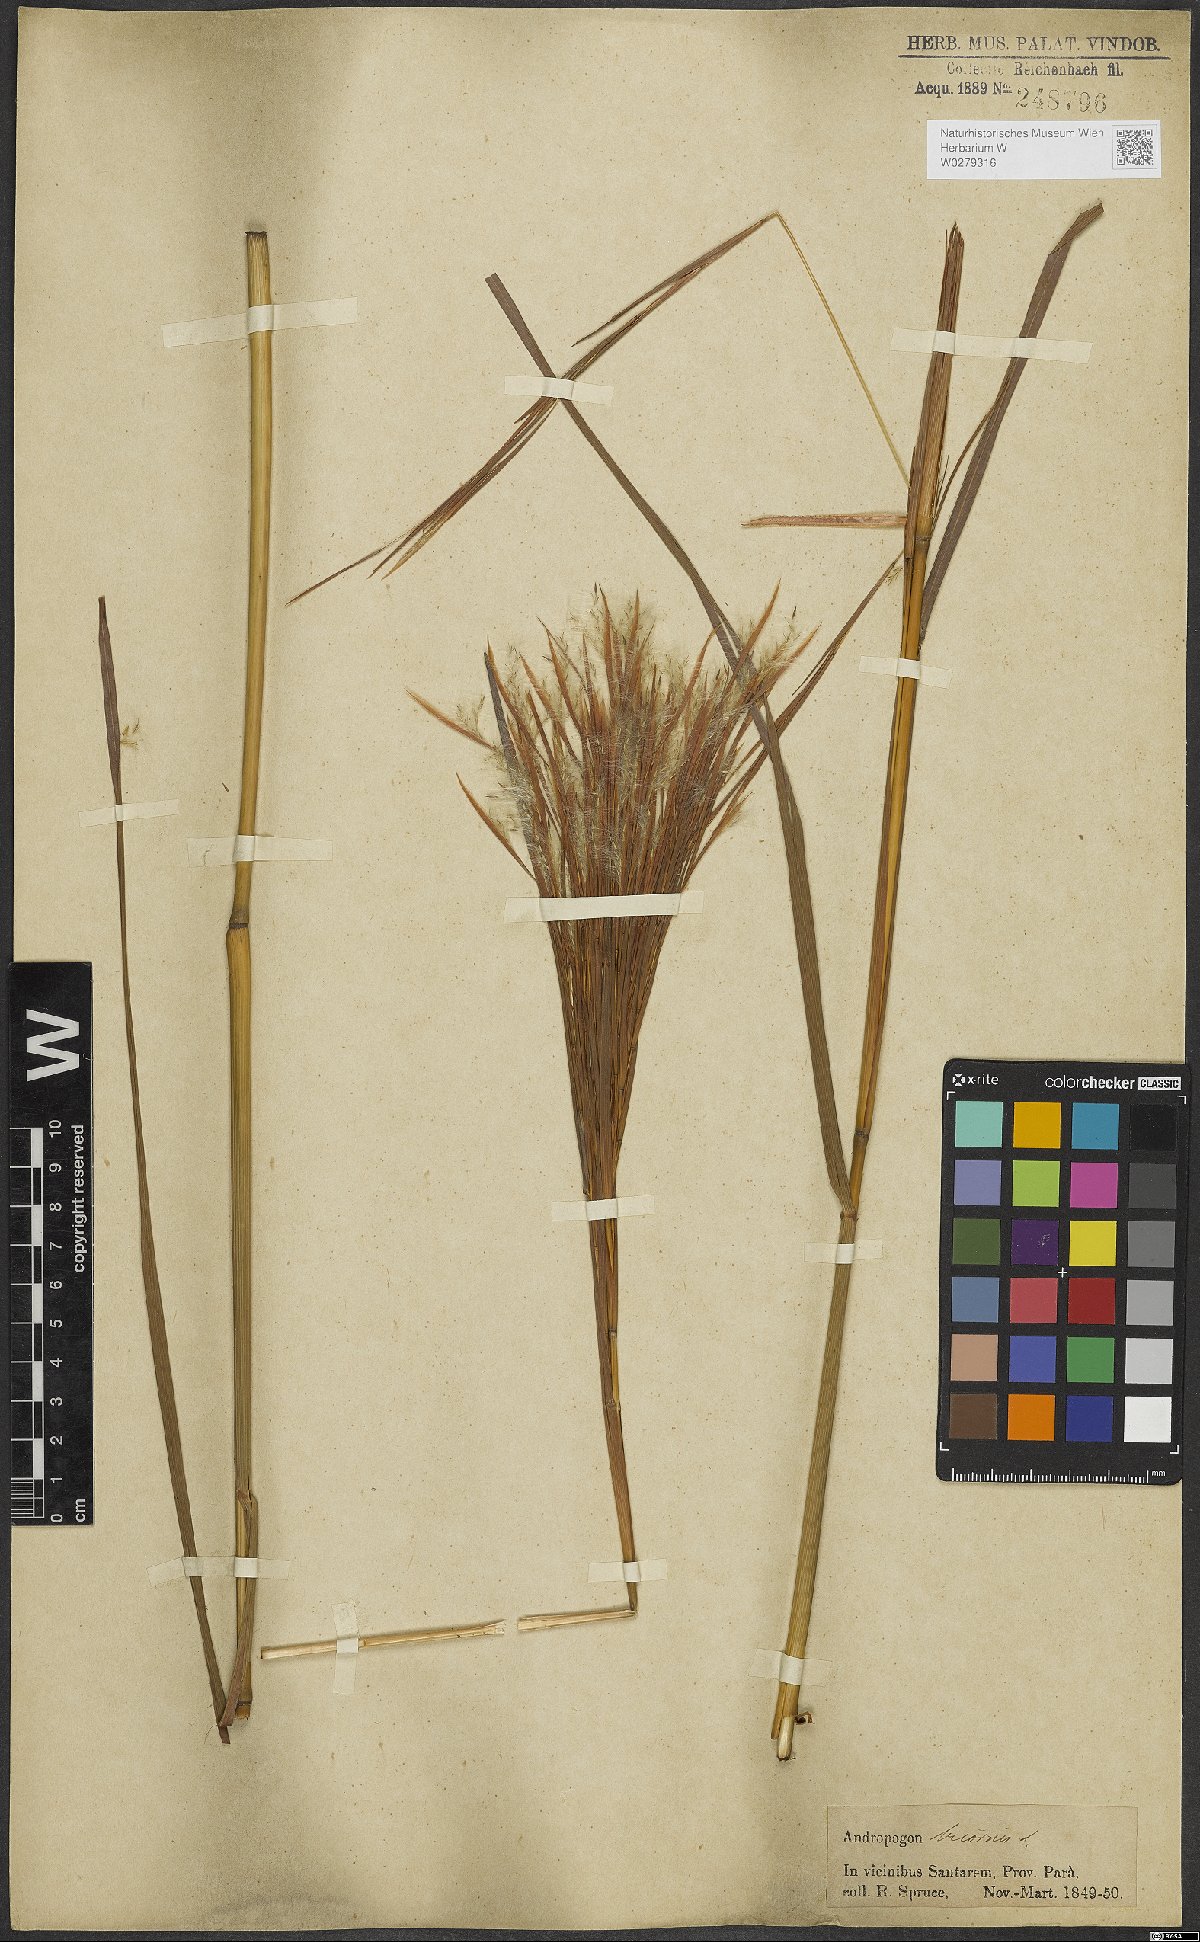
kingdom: Plantae
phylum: Tracheophyta
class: Liliopsida
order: Poales
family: Poaceae
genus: Andropogon
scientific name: Andropogon bicornis
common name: West indian foxtail grass
